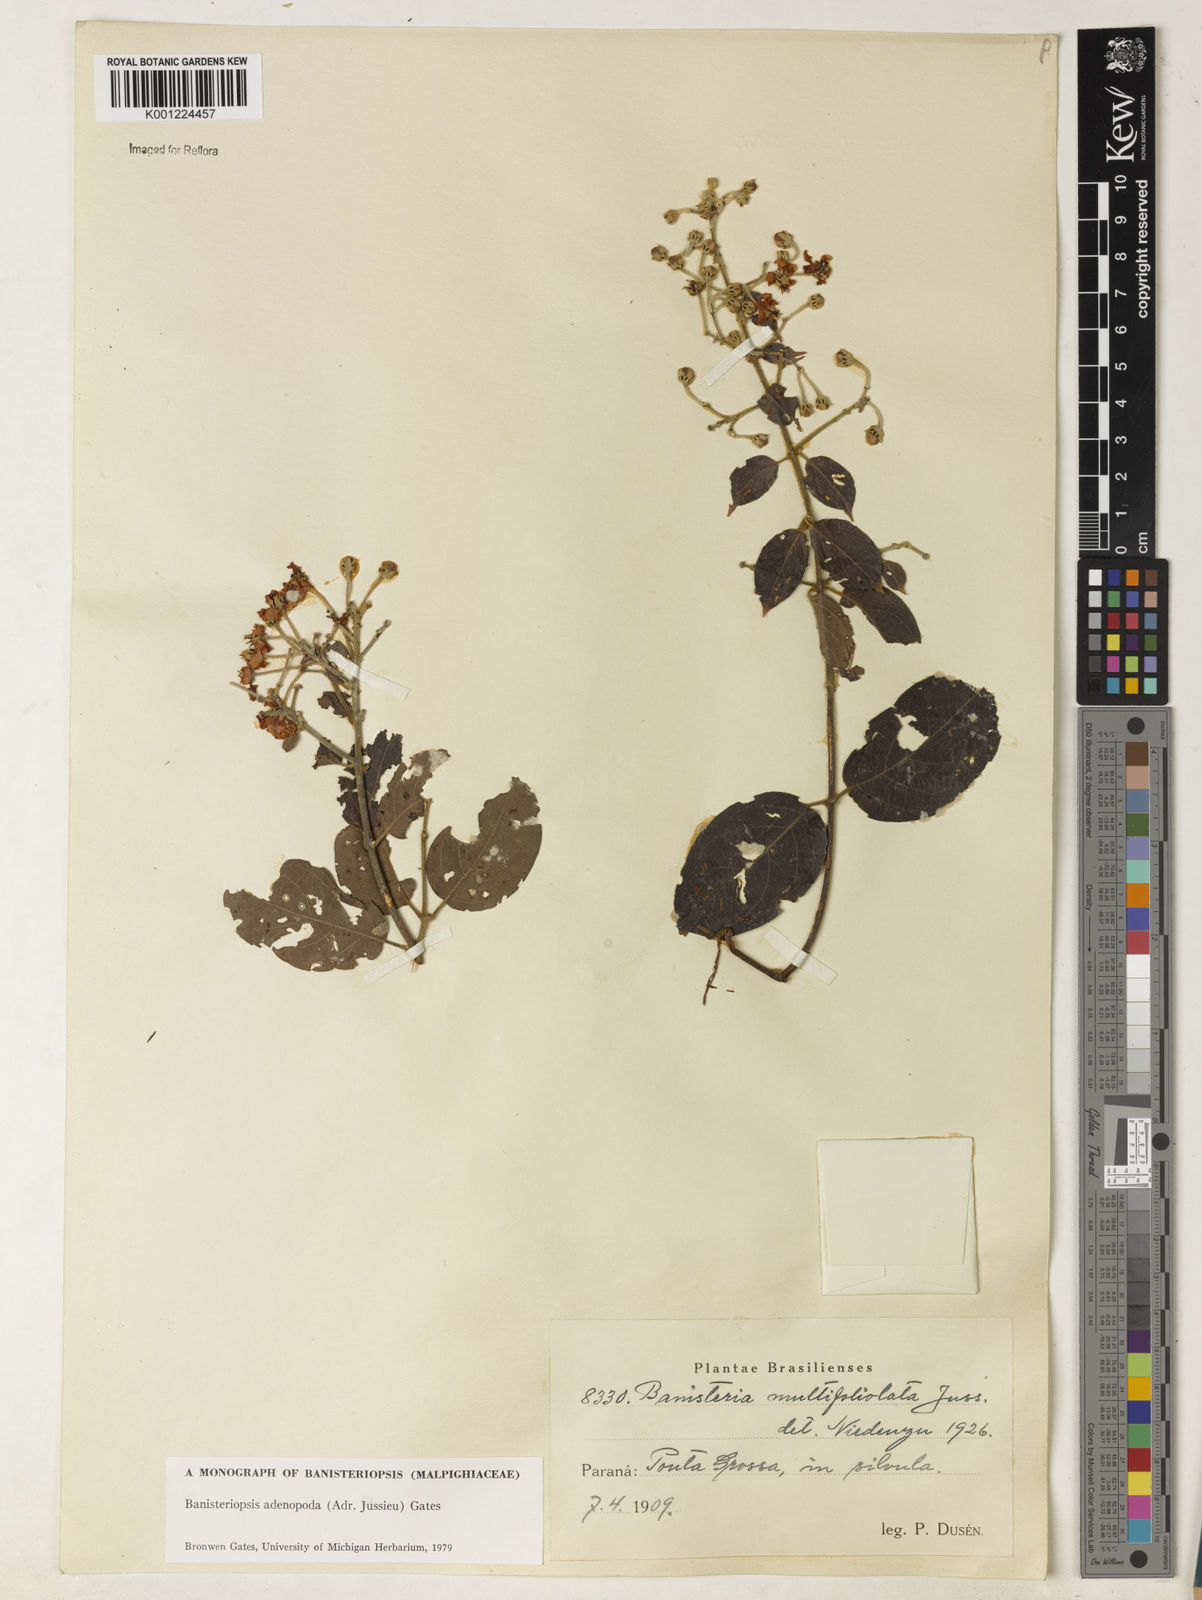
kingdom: Plantae
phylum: Tracheophyta
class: Magnoliopsida
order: Malpighiales
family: Malpighiaceae
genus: Banisteriopsis
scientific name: Banisteriopsis adenopoda
